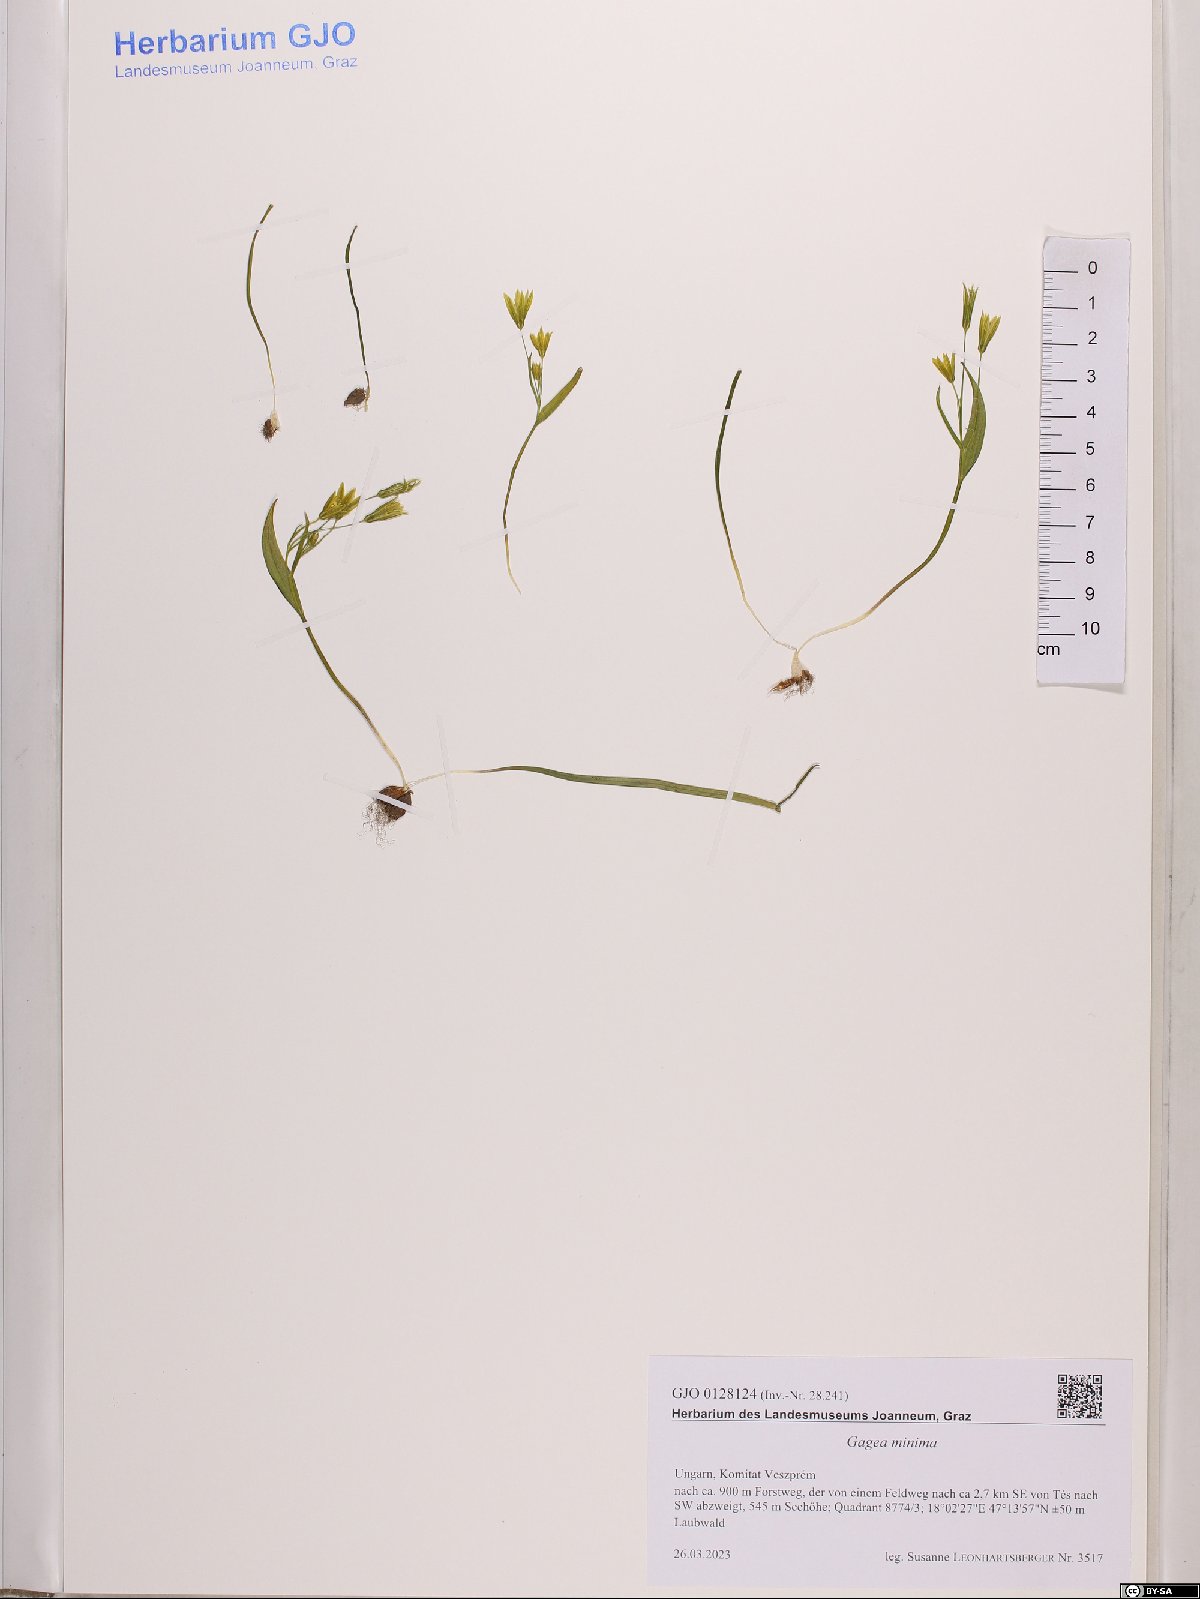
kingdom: Plantae
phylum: Tracheophyta
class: Liliopsida
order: Liliales
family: Liliaceae
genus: Gagea
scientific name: Gagea minima
